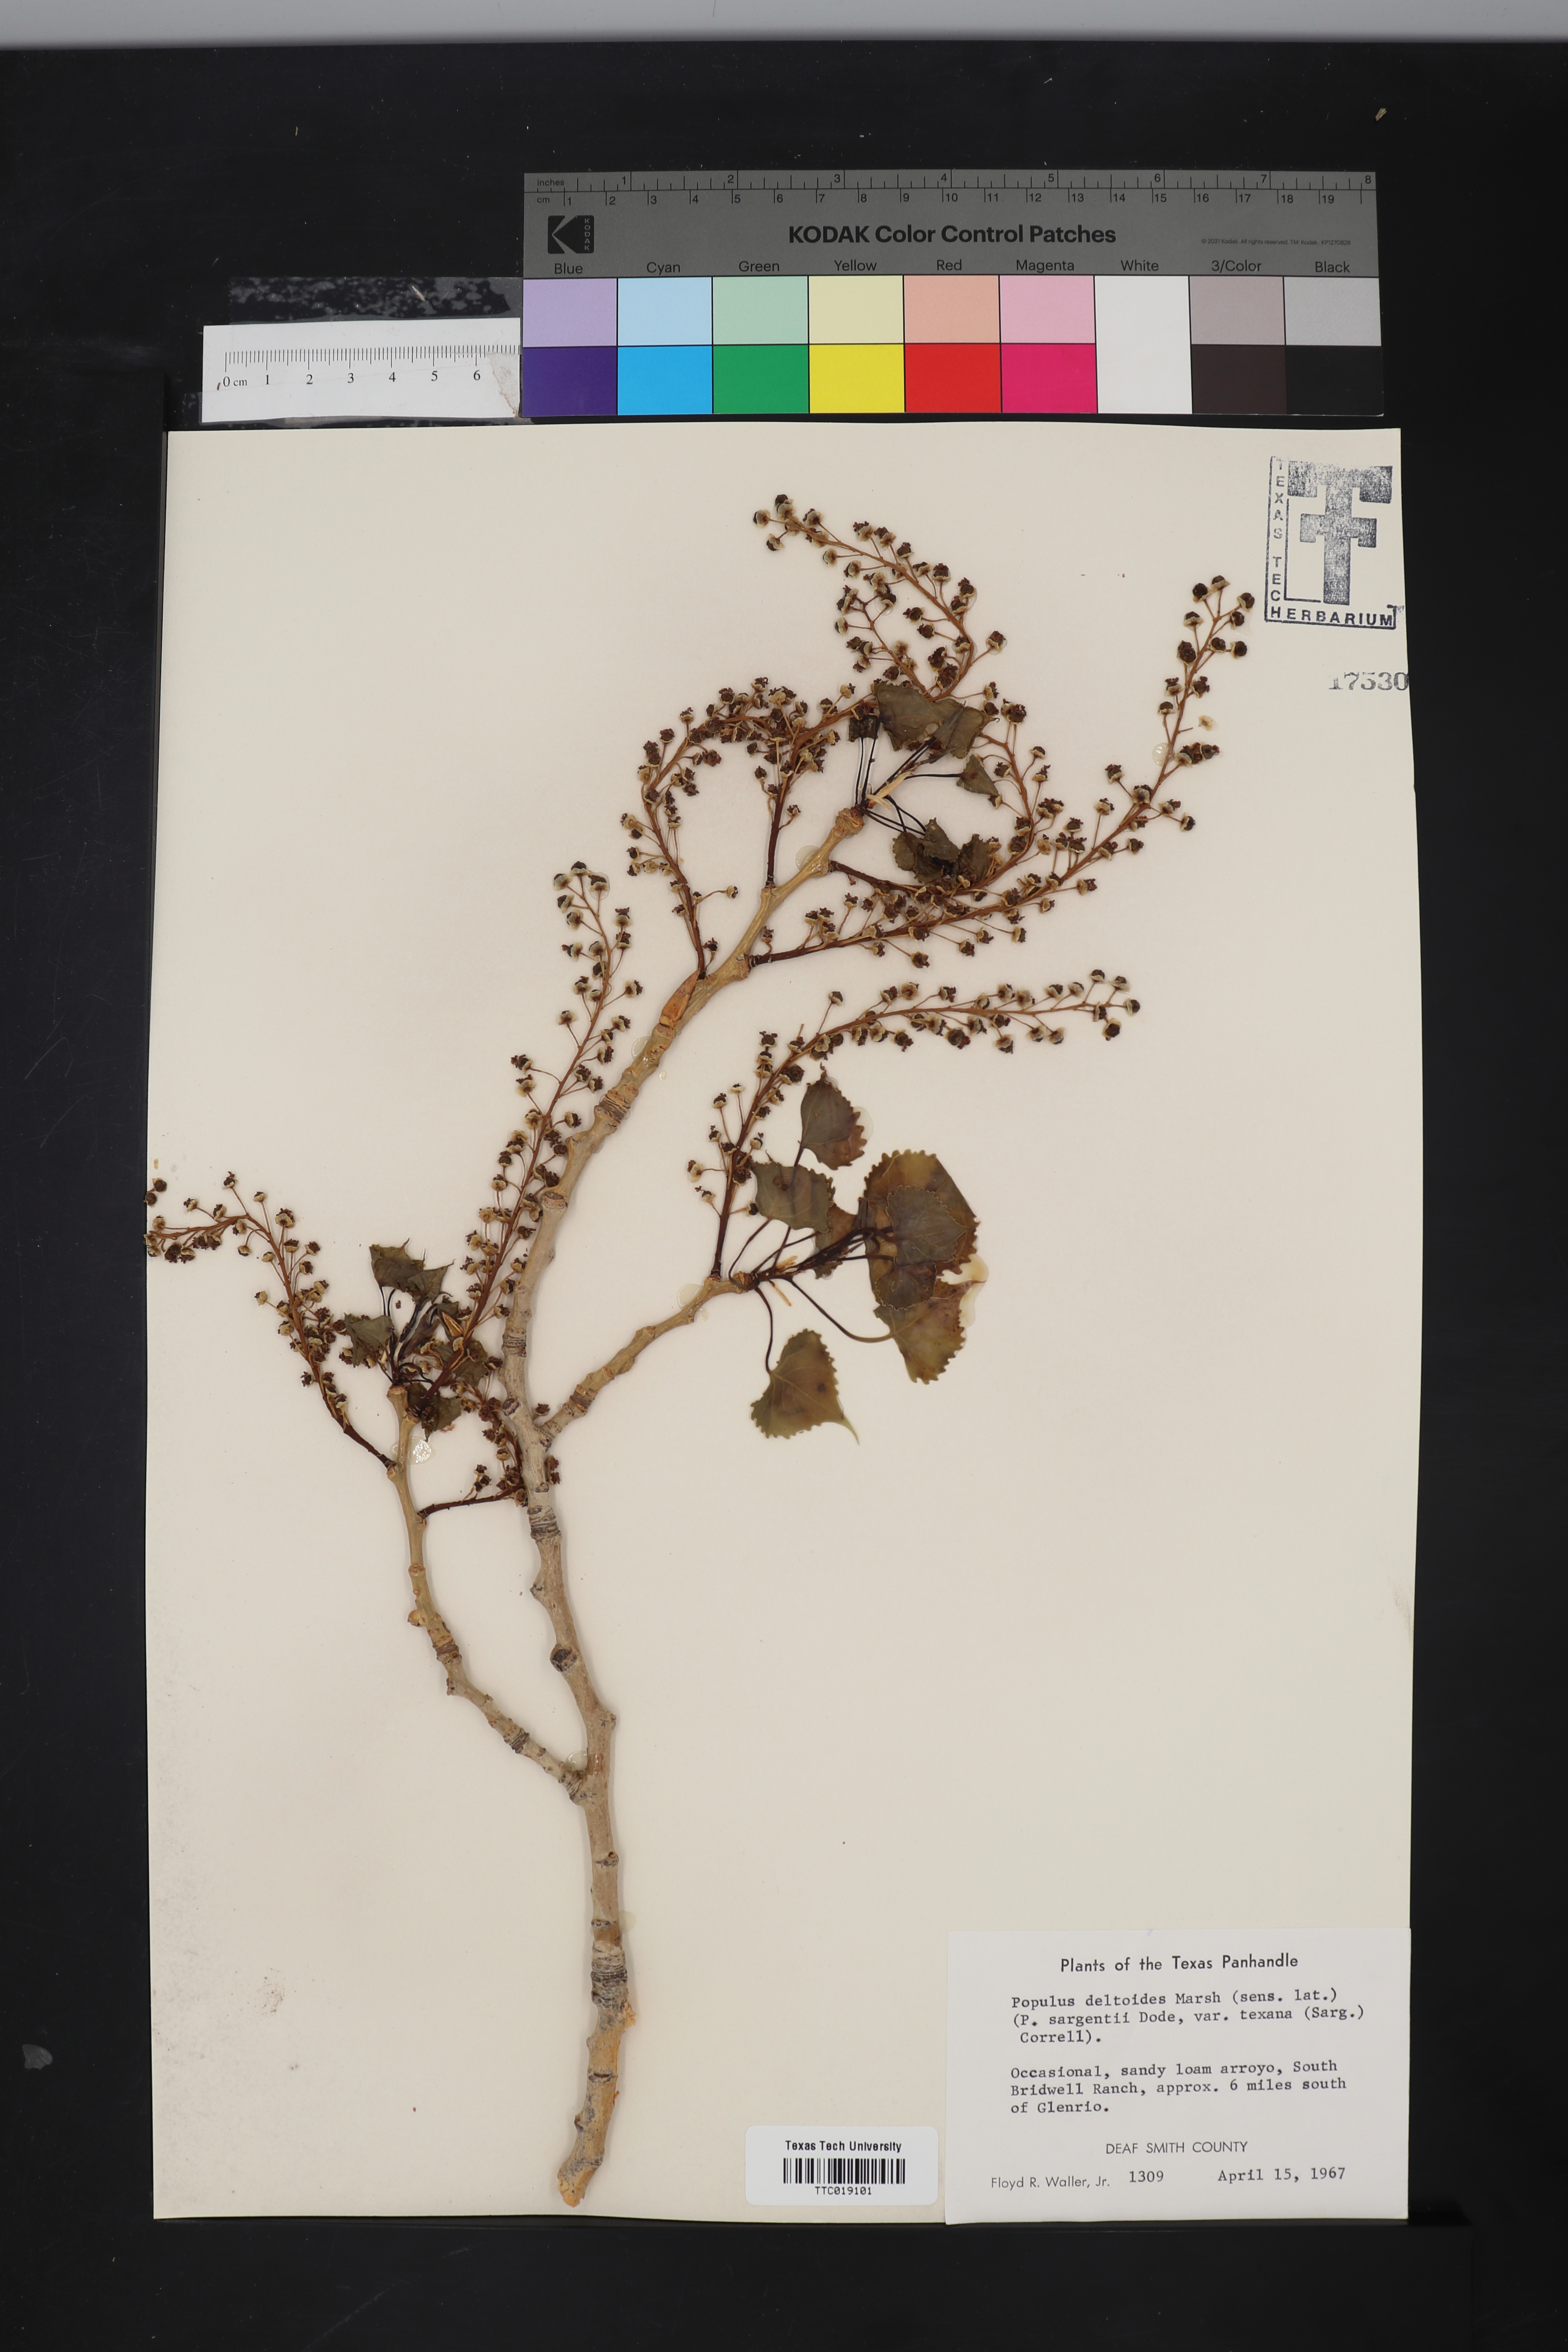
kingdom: Plantae
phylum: Tracheophyta
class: Magnoliopsida
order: Malpighiales
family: Salicaceae
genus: Populus
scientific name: Populus deltoides
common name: Eastern cottonwood
